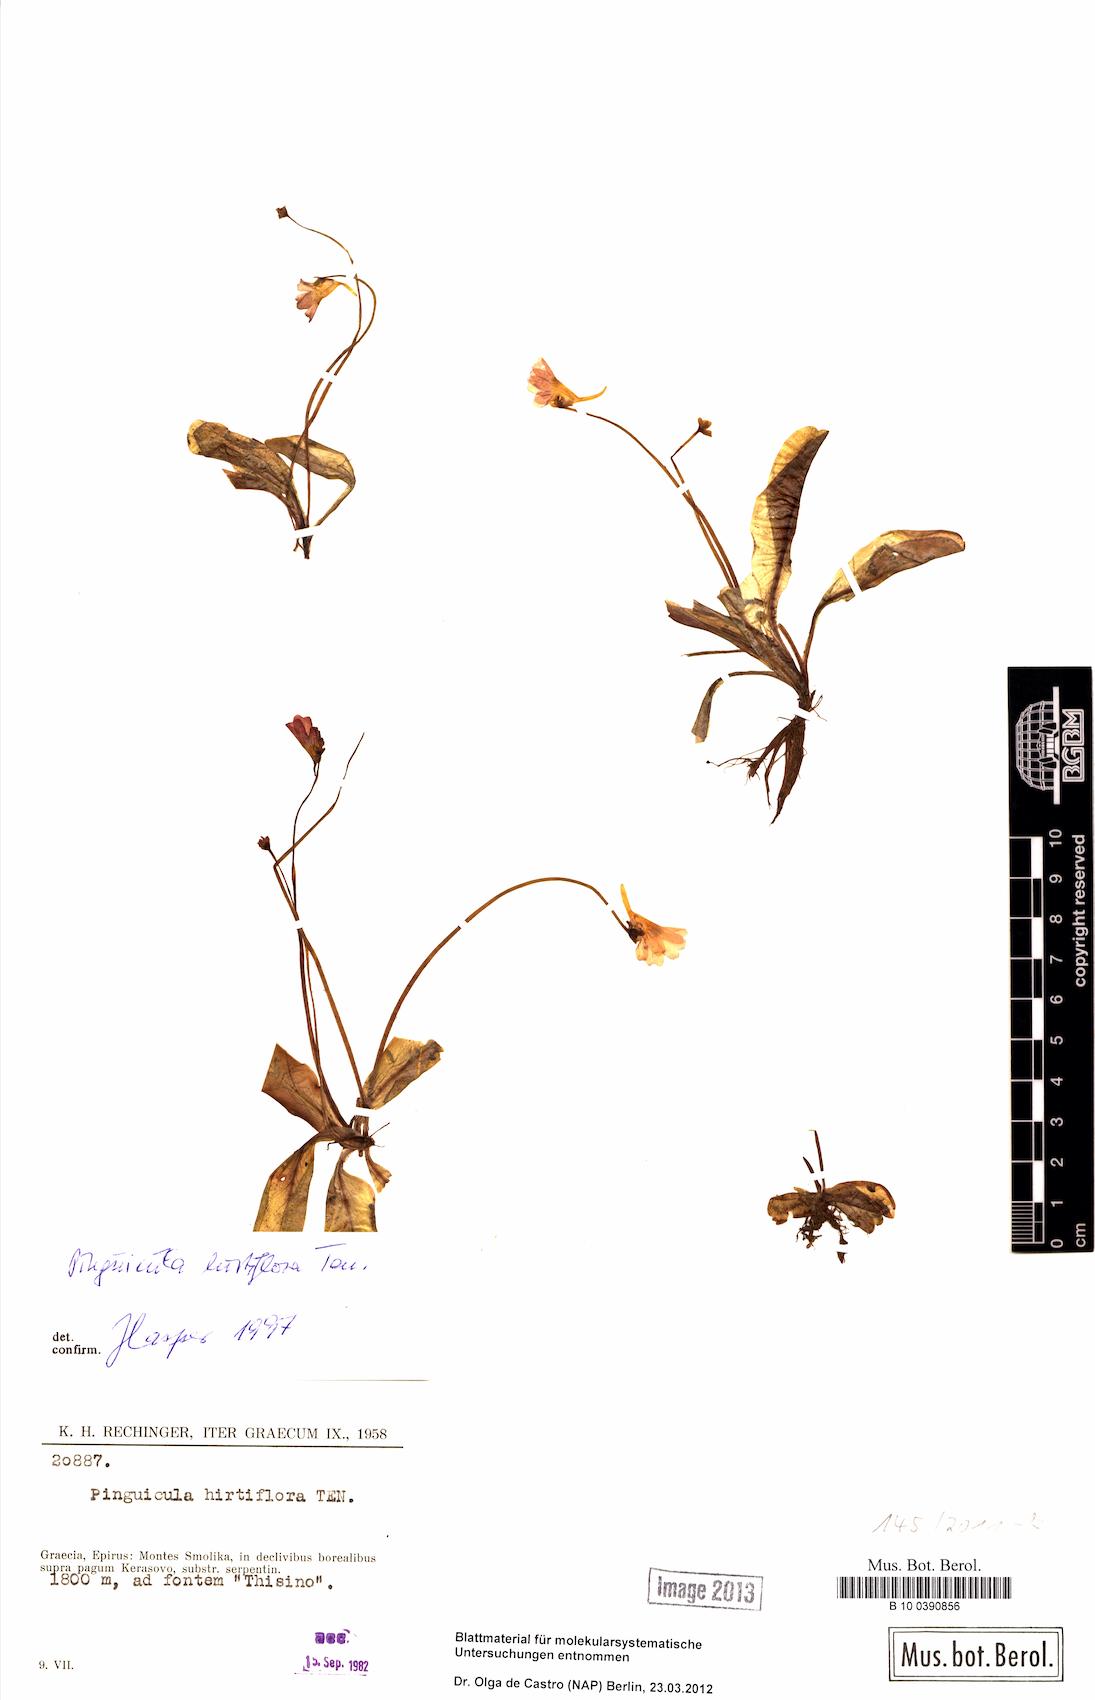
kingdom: Plantae
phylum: Tracheophyta
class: Magnoliopsida
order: Lamiales
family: Lentibulariaceae
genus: Pinguicula
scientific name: Pinguicula crystallina
